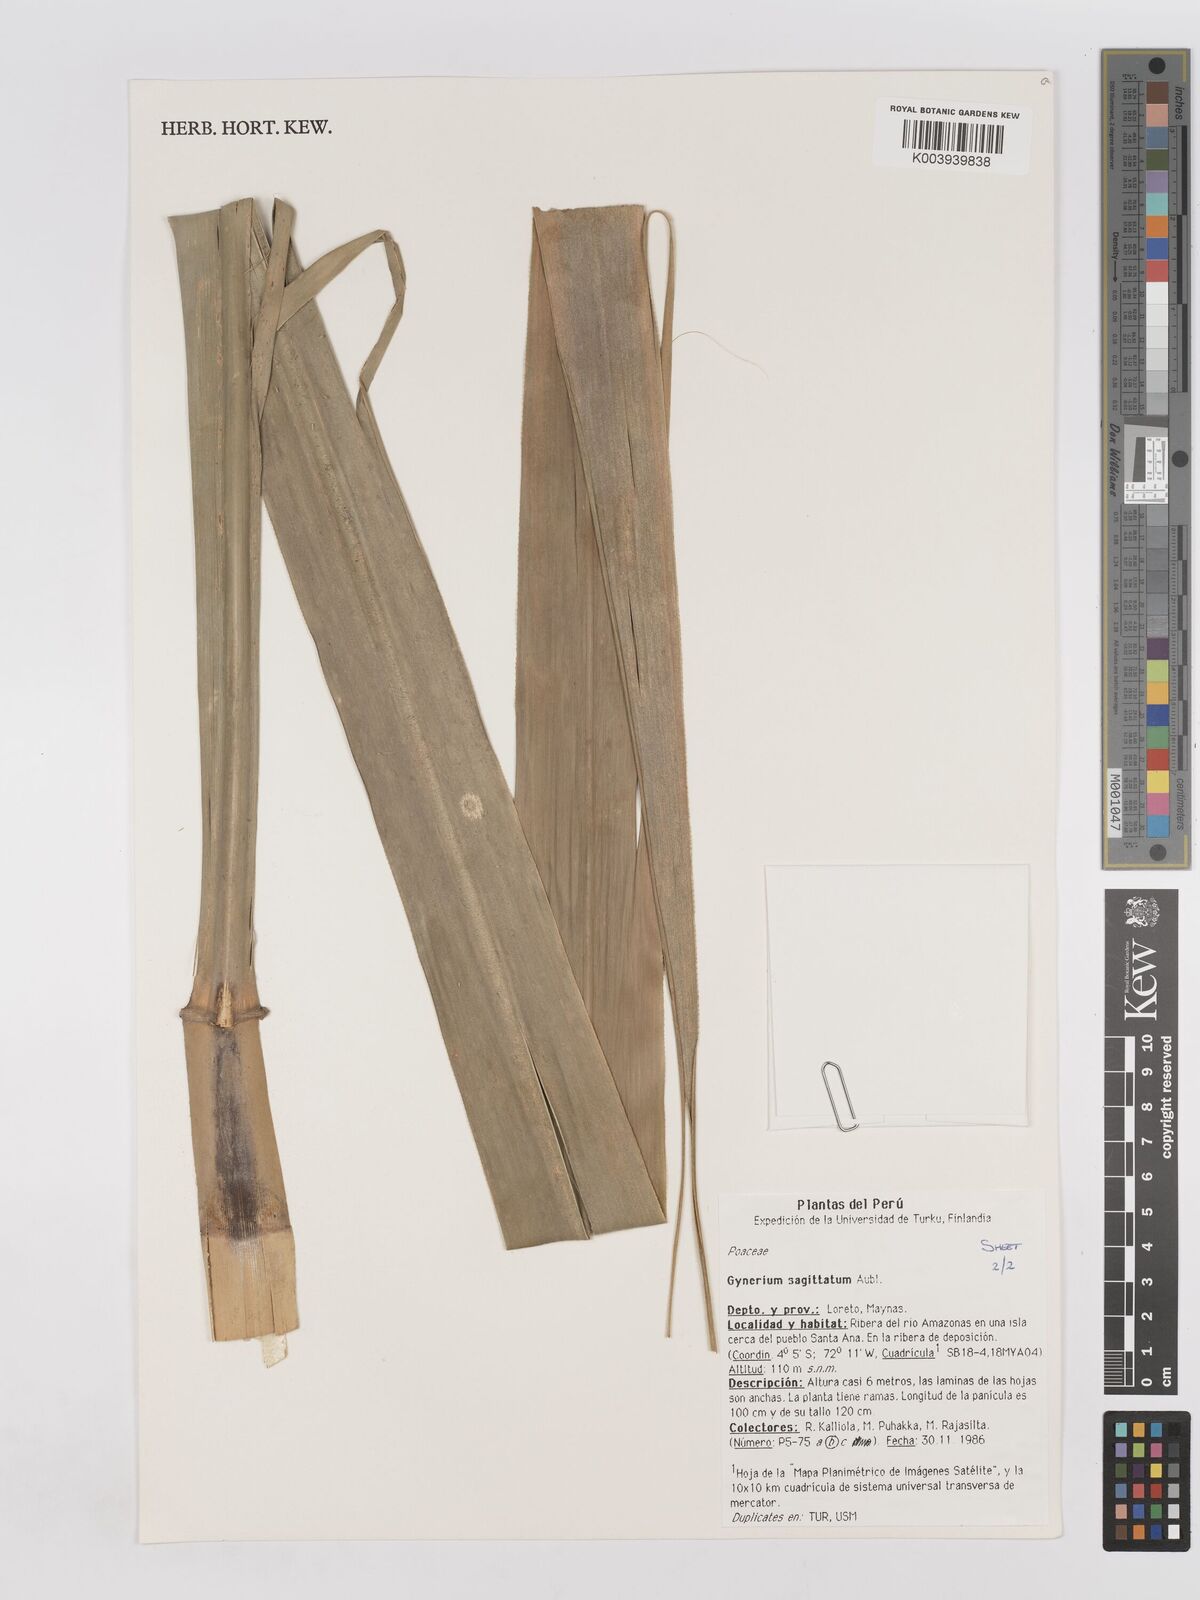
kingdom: Plantae
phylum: Tracheophyta
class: Liliopsida
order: Poales
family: Poaceae
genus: Gynerium
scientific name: Gynerium sagittatum
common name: Wild cane
